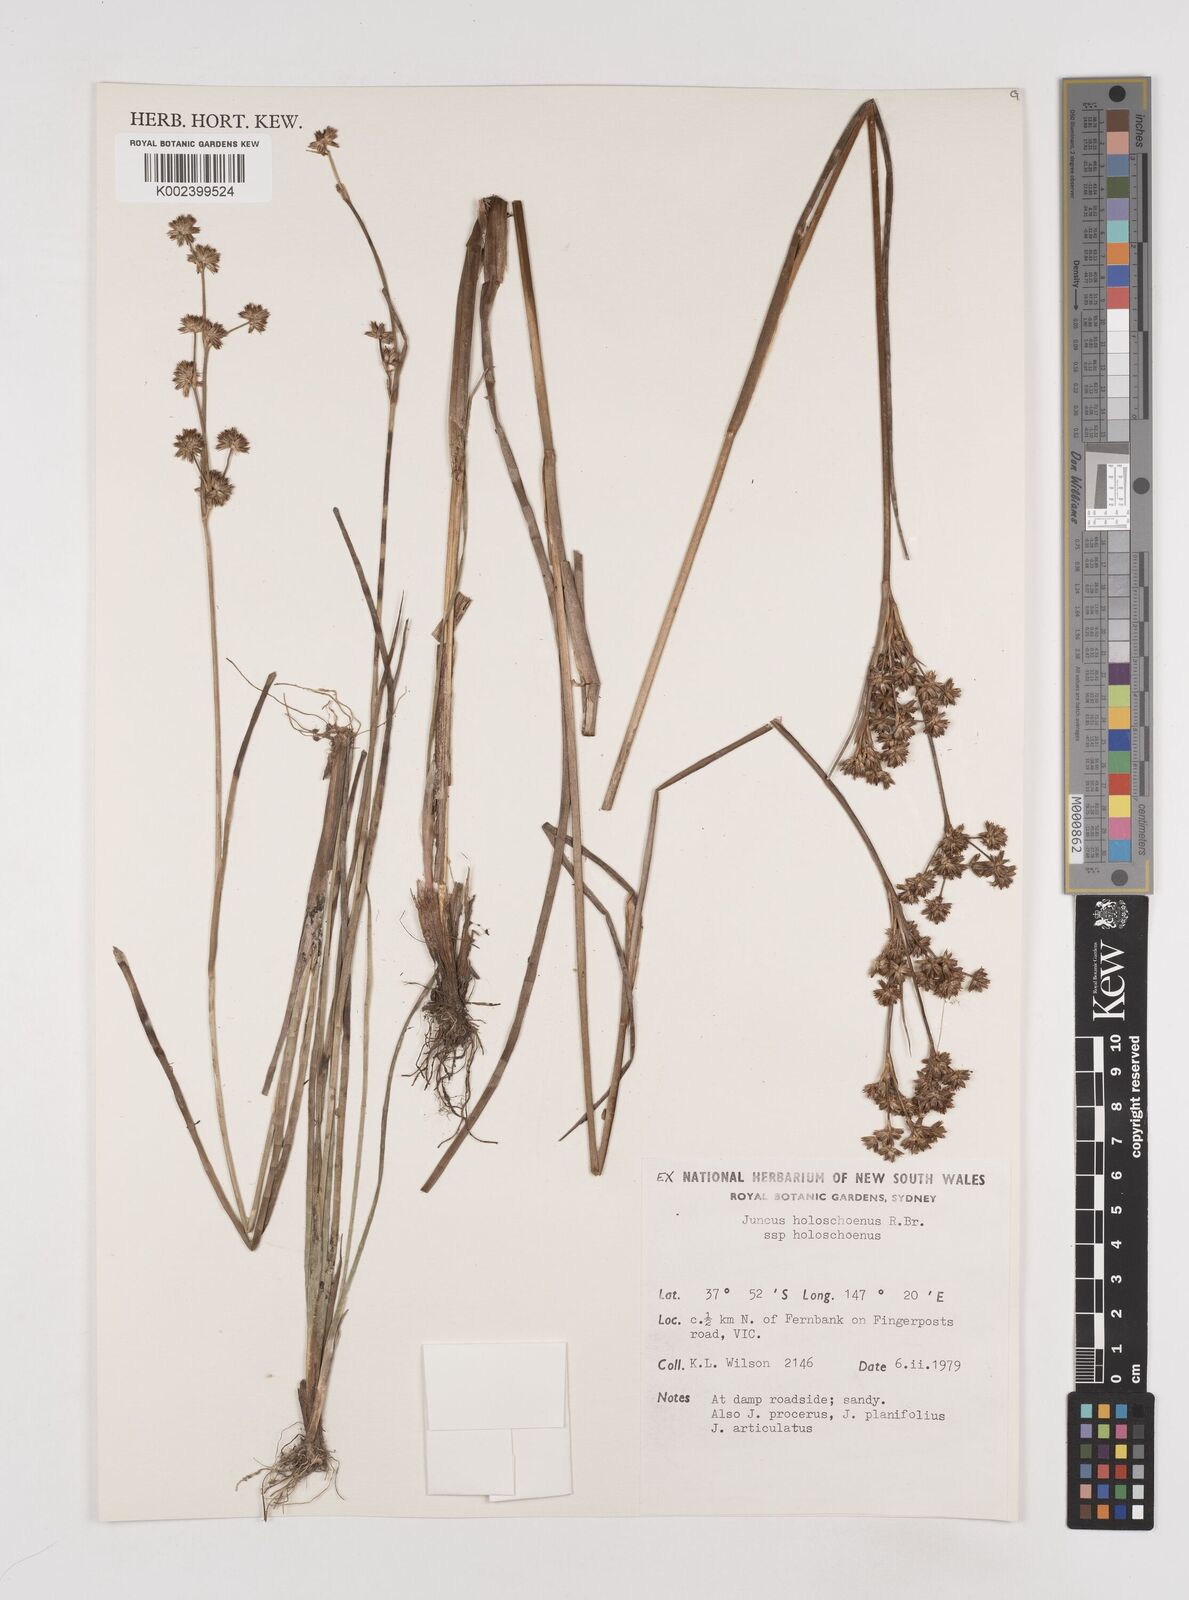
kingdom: Plantae
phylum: Tracheophyta
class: Liliopsida
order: Poales
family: Juncaceae
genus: Juncus
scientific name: Juncus holoschoenus
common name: Joint-leaf rush
